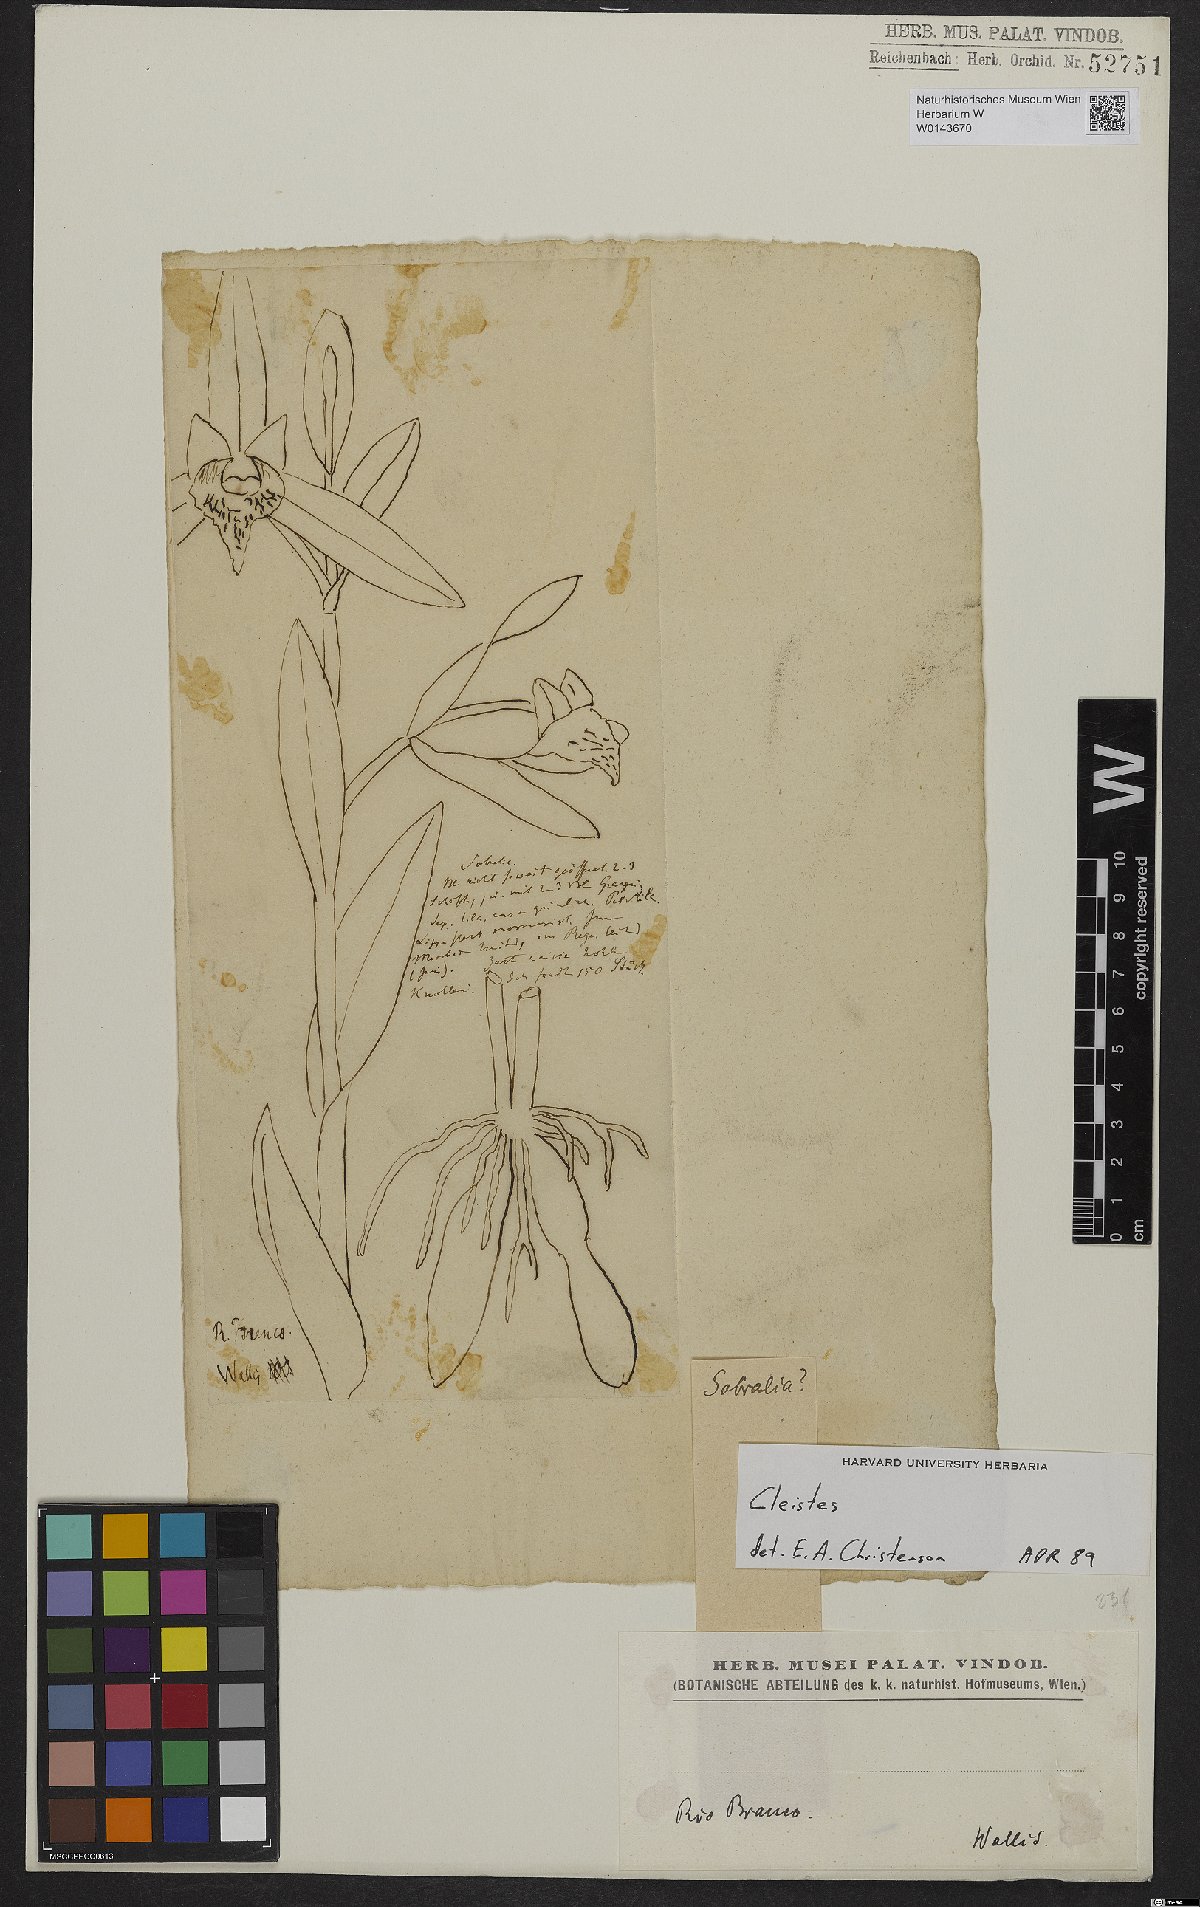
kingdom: Plantae
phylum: Tracheophyta
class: Liliopsida
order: Asparagales
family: Orchidaceae
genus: Cleistes
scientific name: Cleistes
